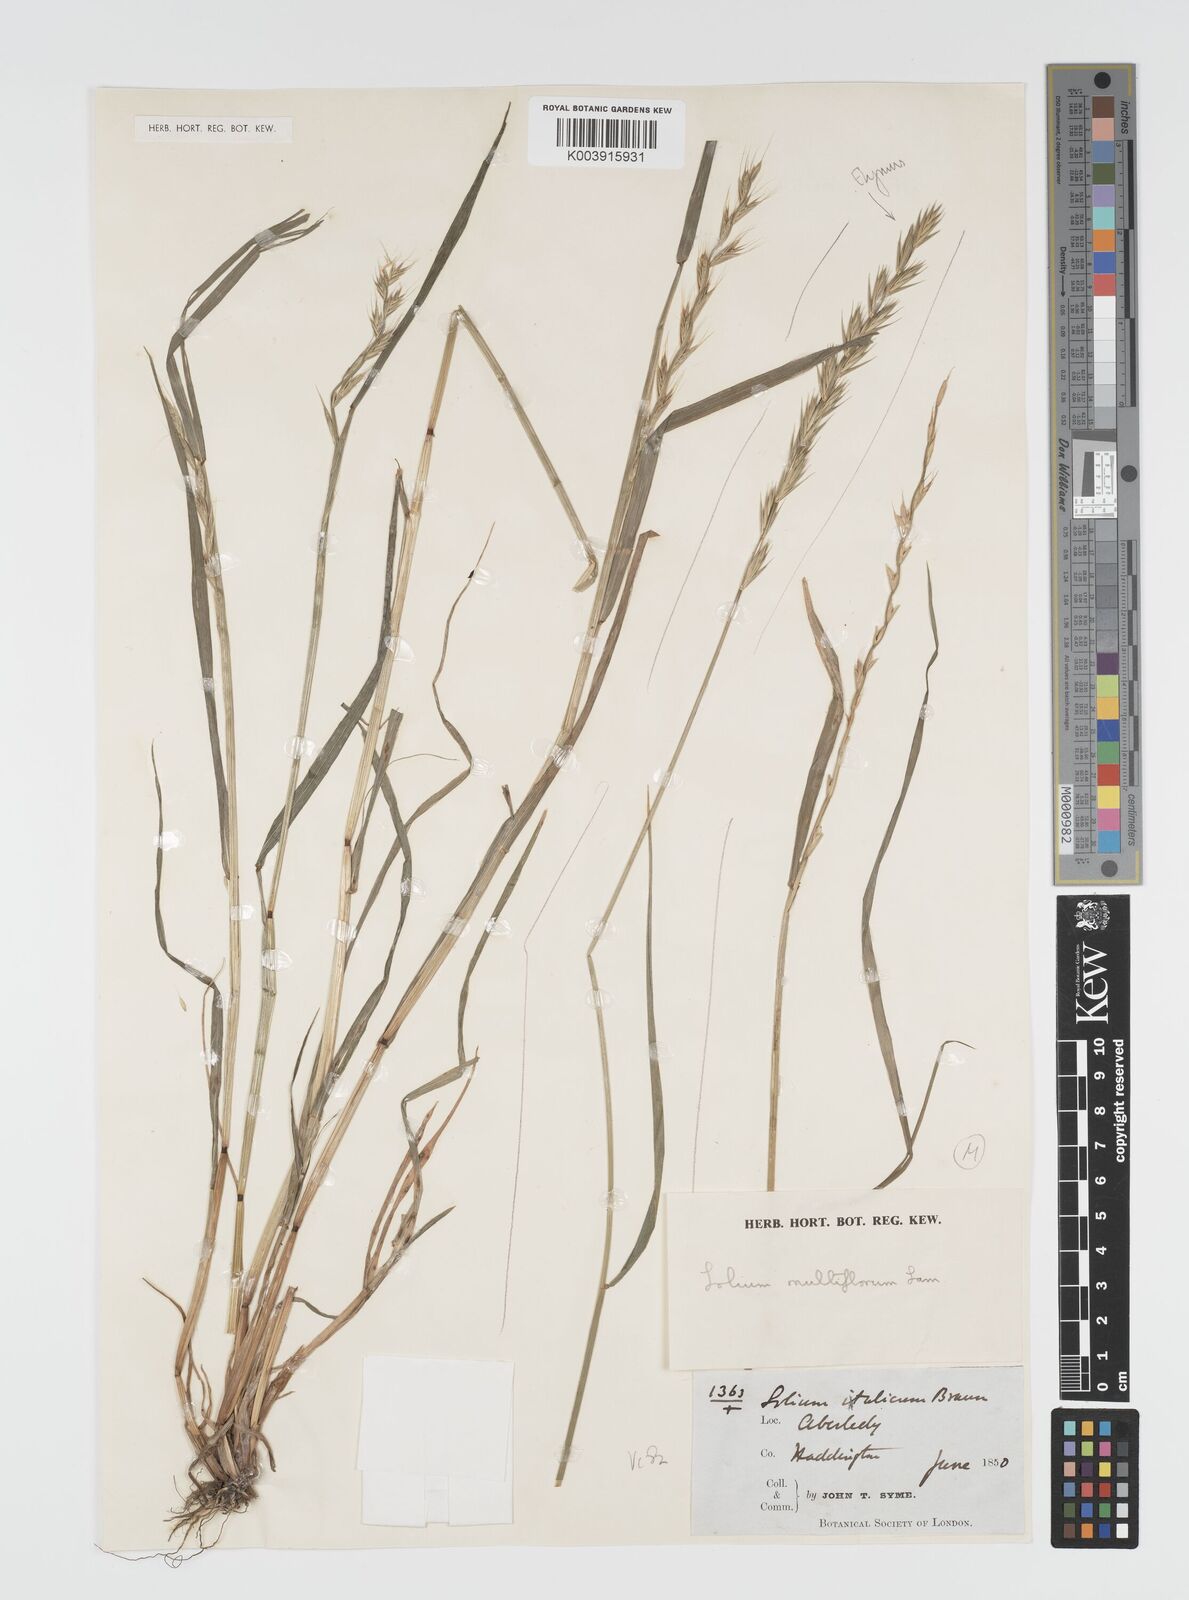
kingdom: Plantae
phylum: Tracheophyta
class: Liliopsida
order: Poales
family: Poaceae
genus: Lolium
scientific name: Lolium multiflorum
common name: Annual ryegrass
